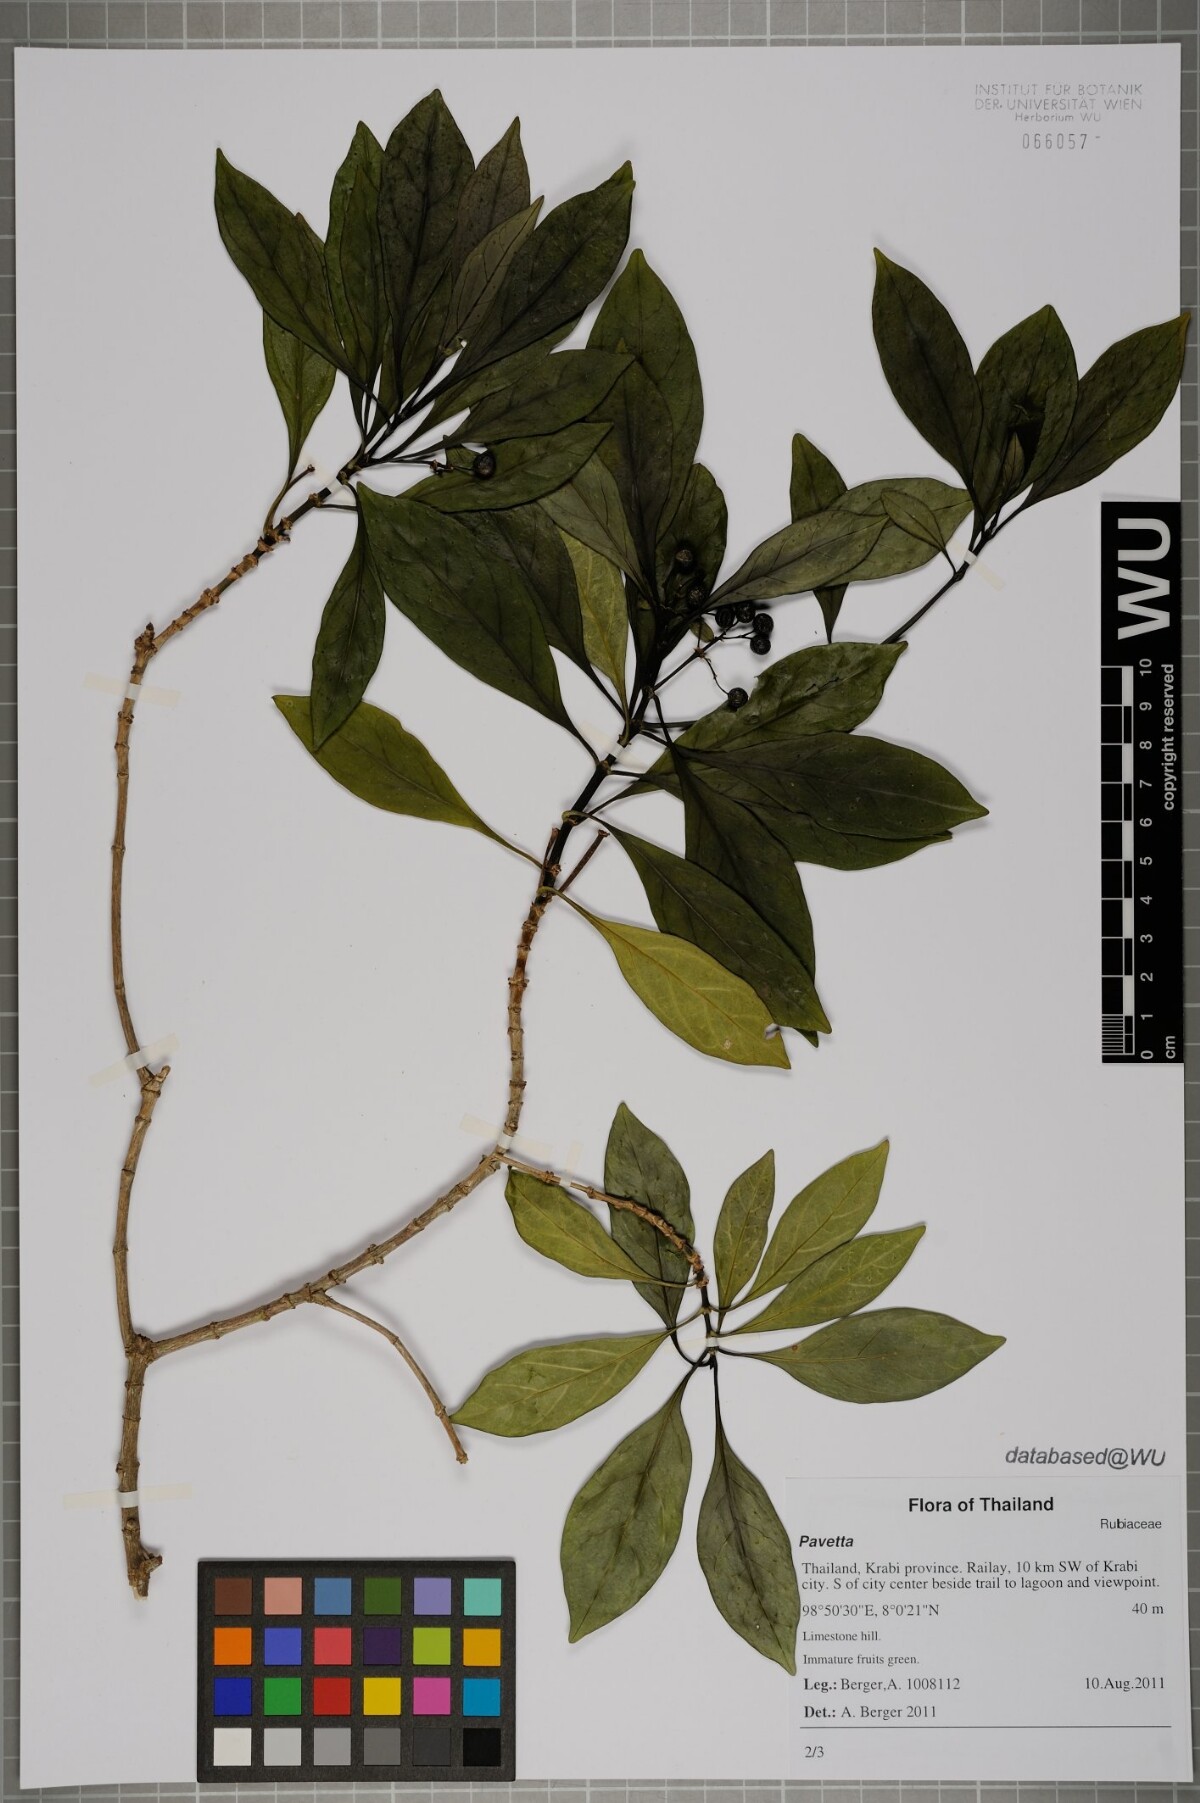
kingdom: Plantae
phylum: Tracheophyta
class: Magnoliopsida
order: Gentianales
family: Rubiaceae
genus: Pavetta
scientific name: Pavetta
